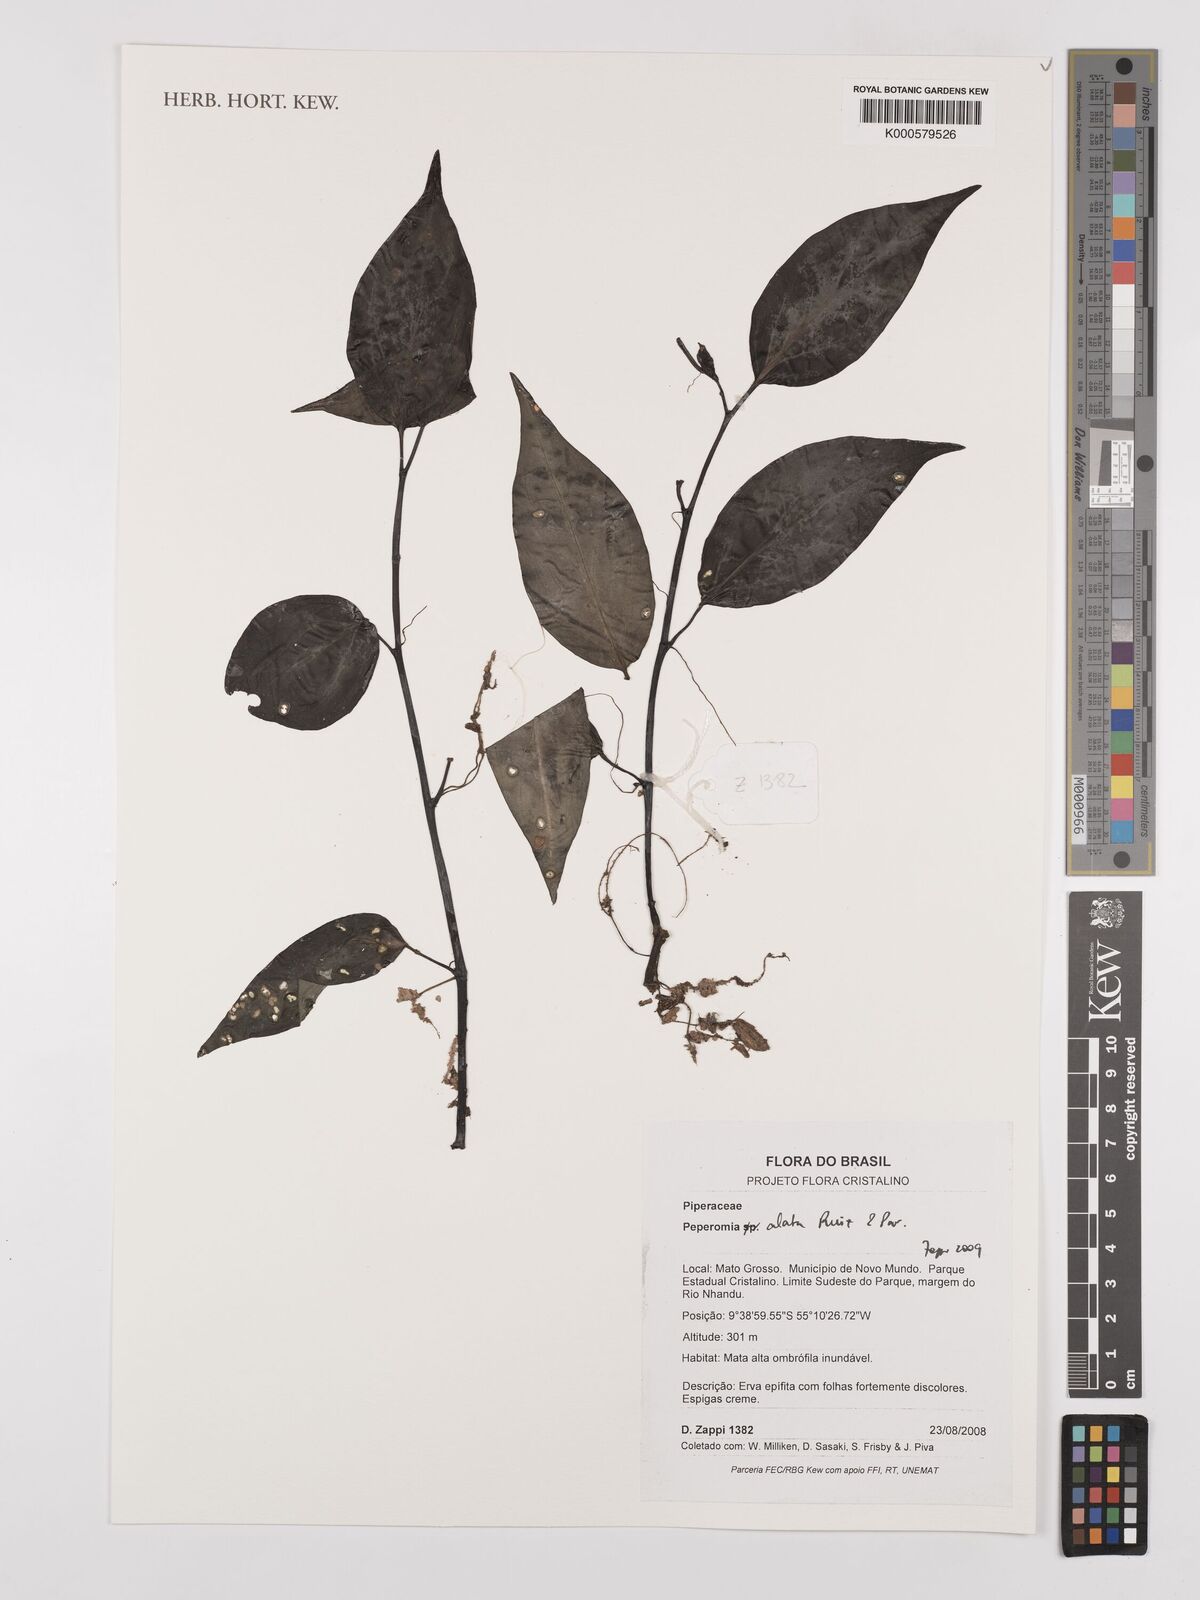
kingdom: Plantae
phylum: Tracheophyta
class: Magnoliopsida
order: Piperales
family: Piperaceae
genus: Peperomia
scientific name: Peperomia alata
